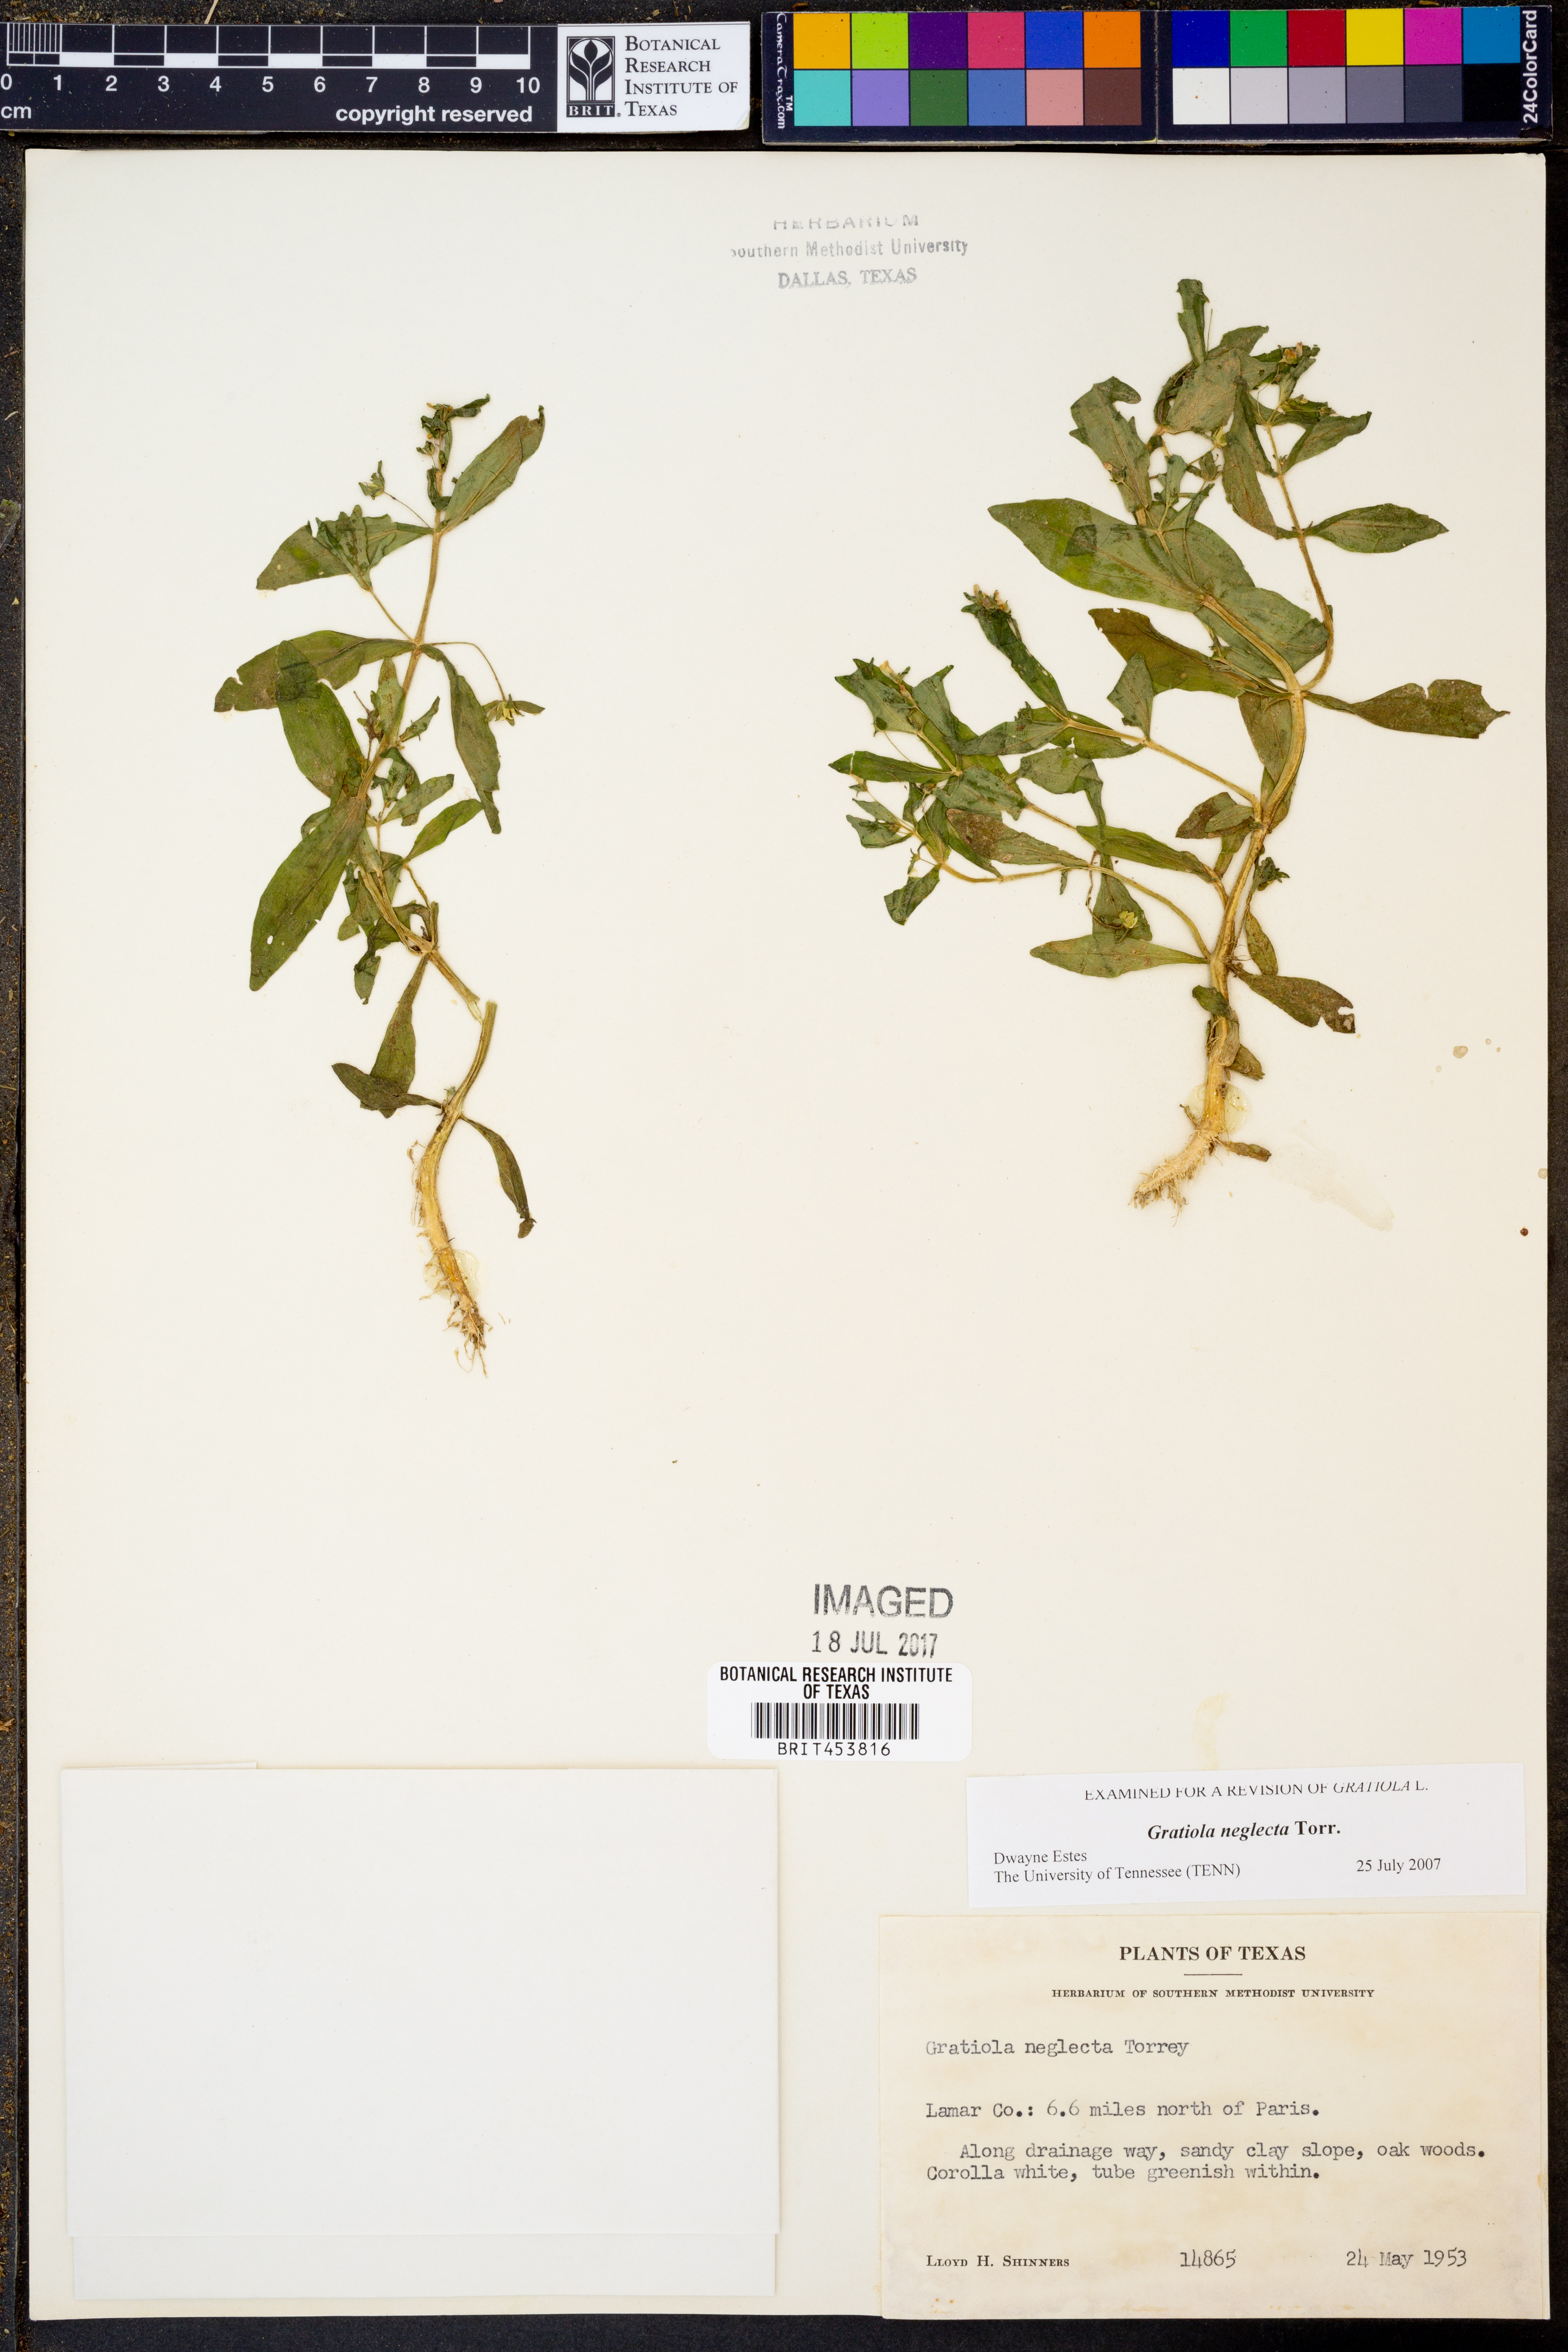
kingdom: Plantae
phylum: Tracheophyta
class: Magnoliopsida
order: Lamiales
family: Plantaginaceae
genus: Gratiola
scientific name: Gratiola neglecta
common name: American hedge-hyssop
